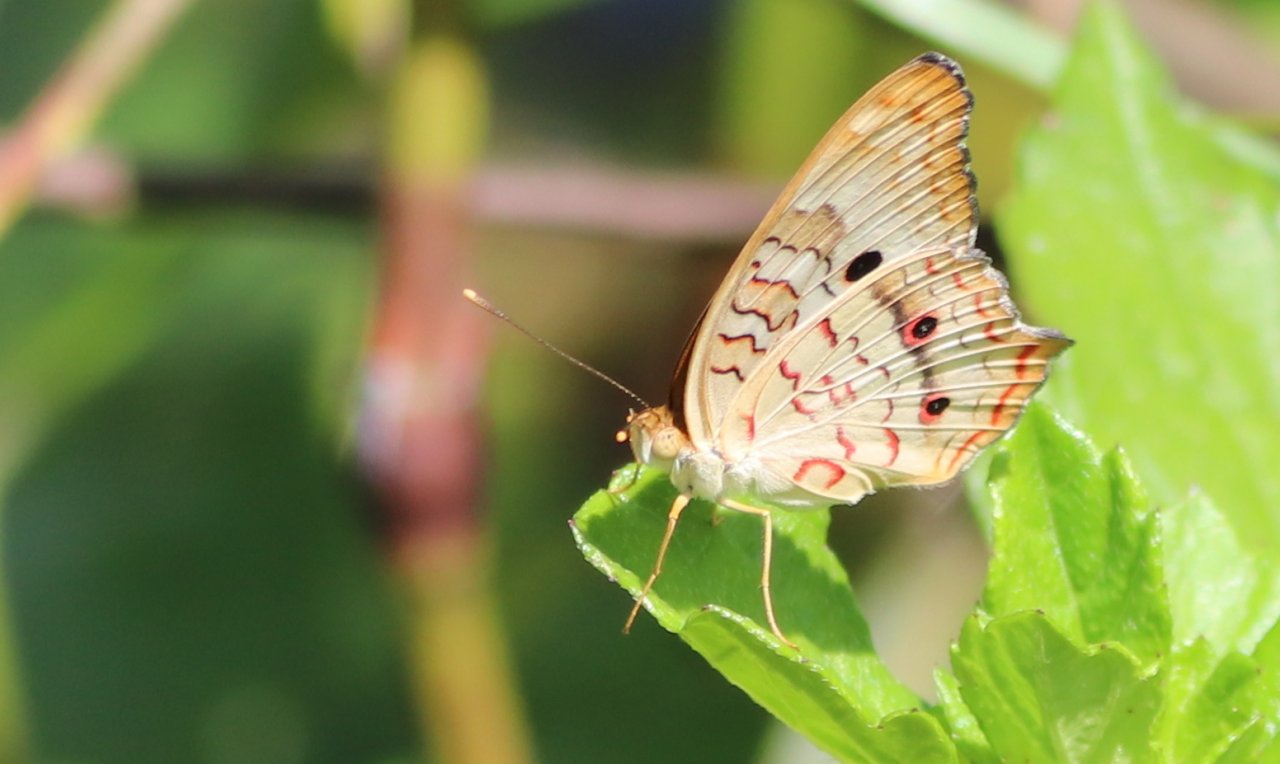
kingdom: Animalia
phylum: Arthropoda
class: Insecta
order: Lepidoptera
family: Nymphalidae
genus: Anartia
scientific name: Anartia jatrophae
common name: White Peacock
